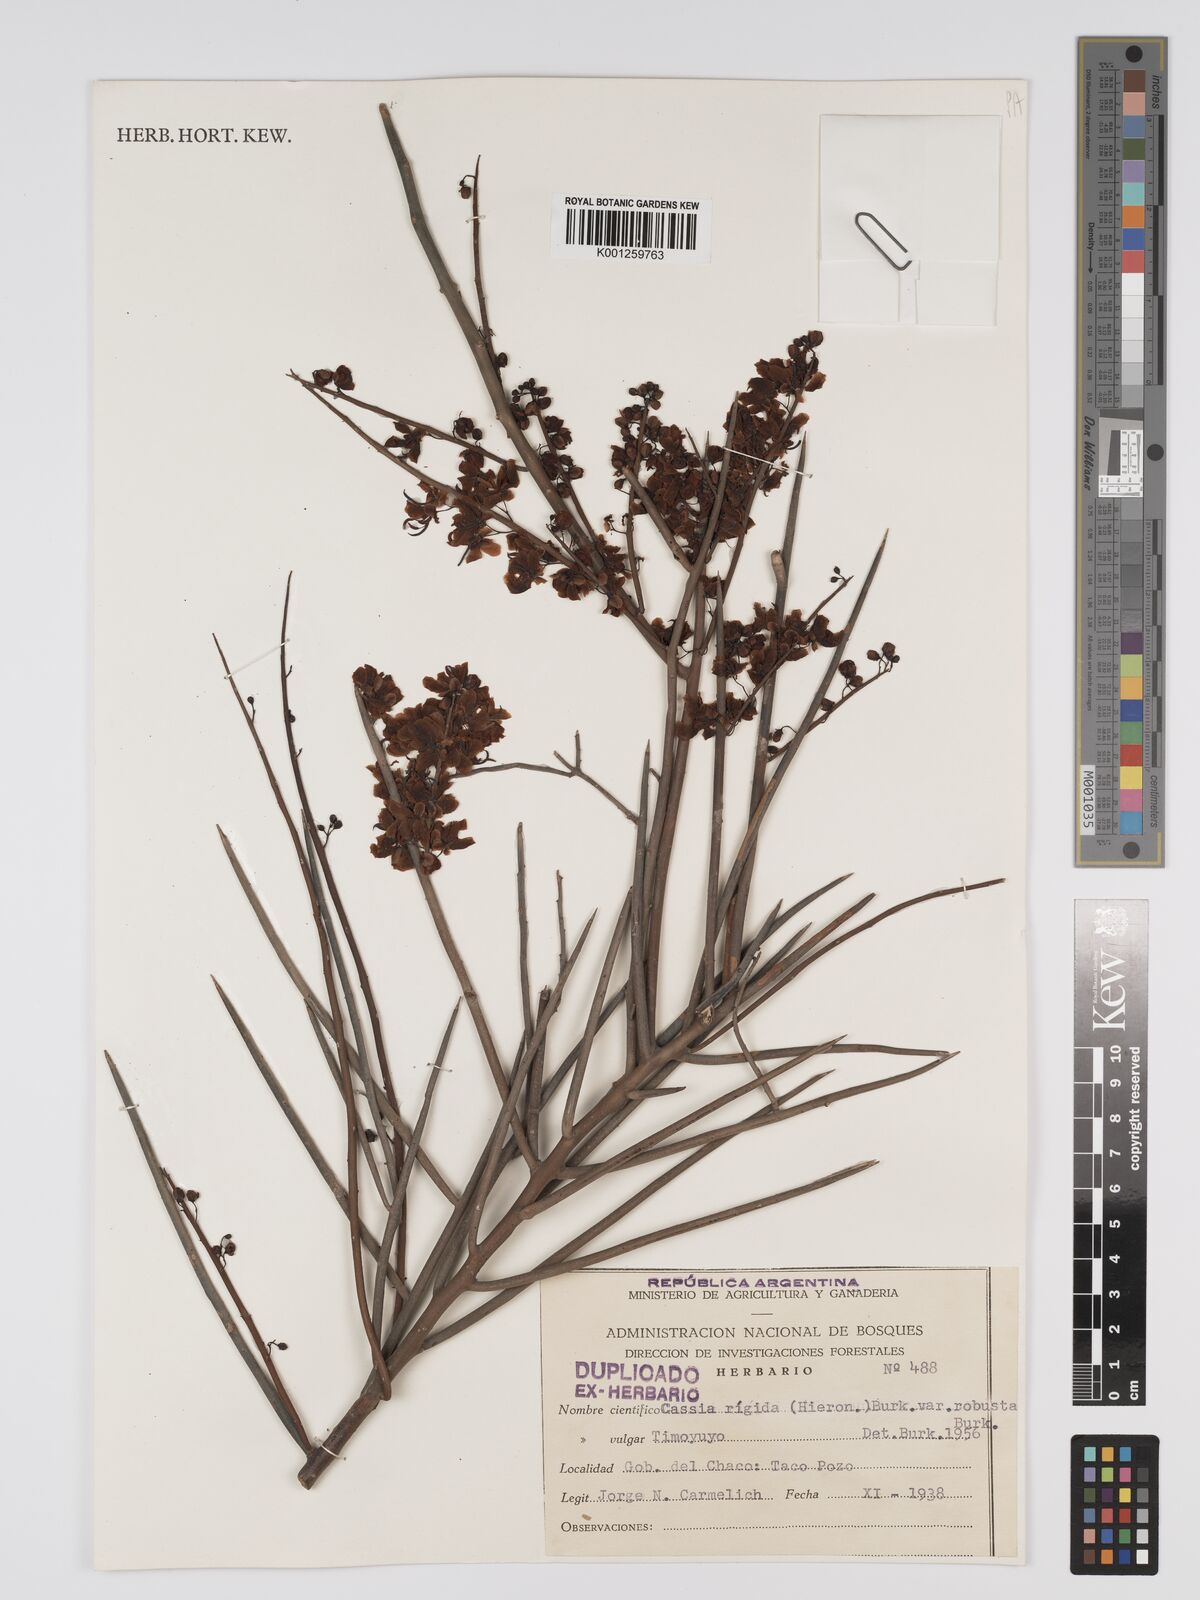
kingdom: Plantae
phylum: Tracheophyta
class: Magnoliopsida
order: Fabales
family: Fabaceae
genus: Senna
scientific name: Senna aphylla
